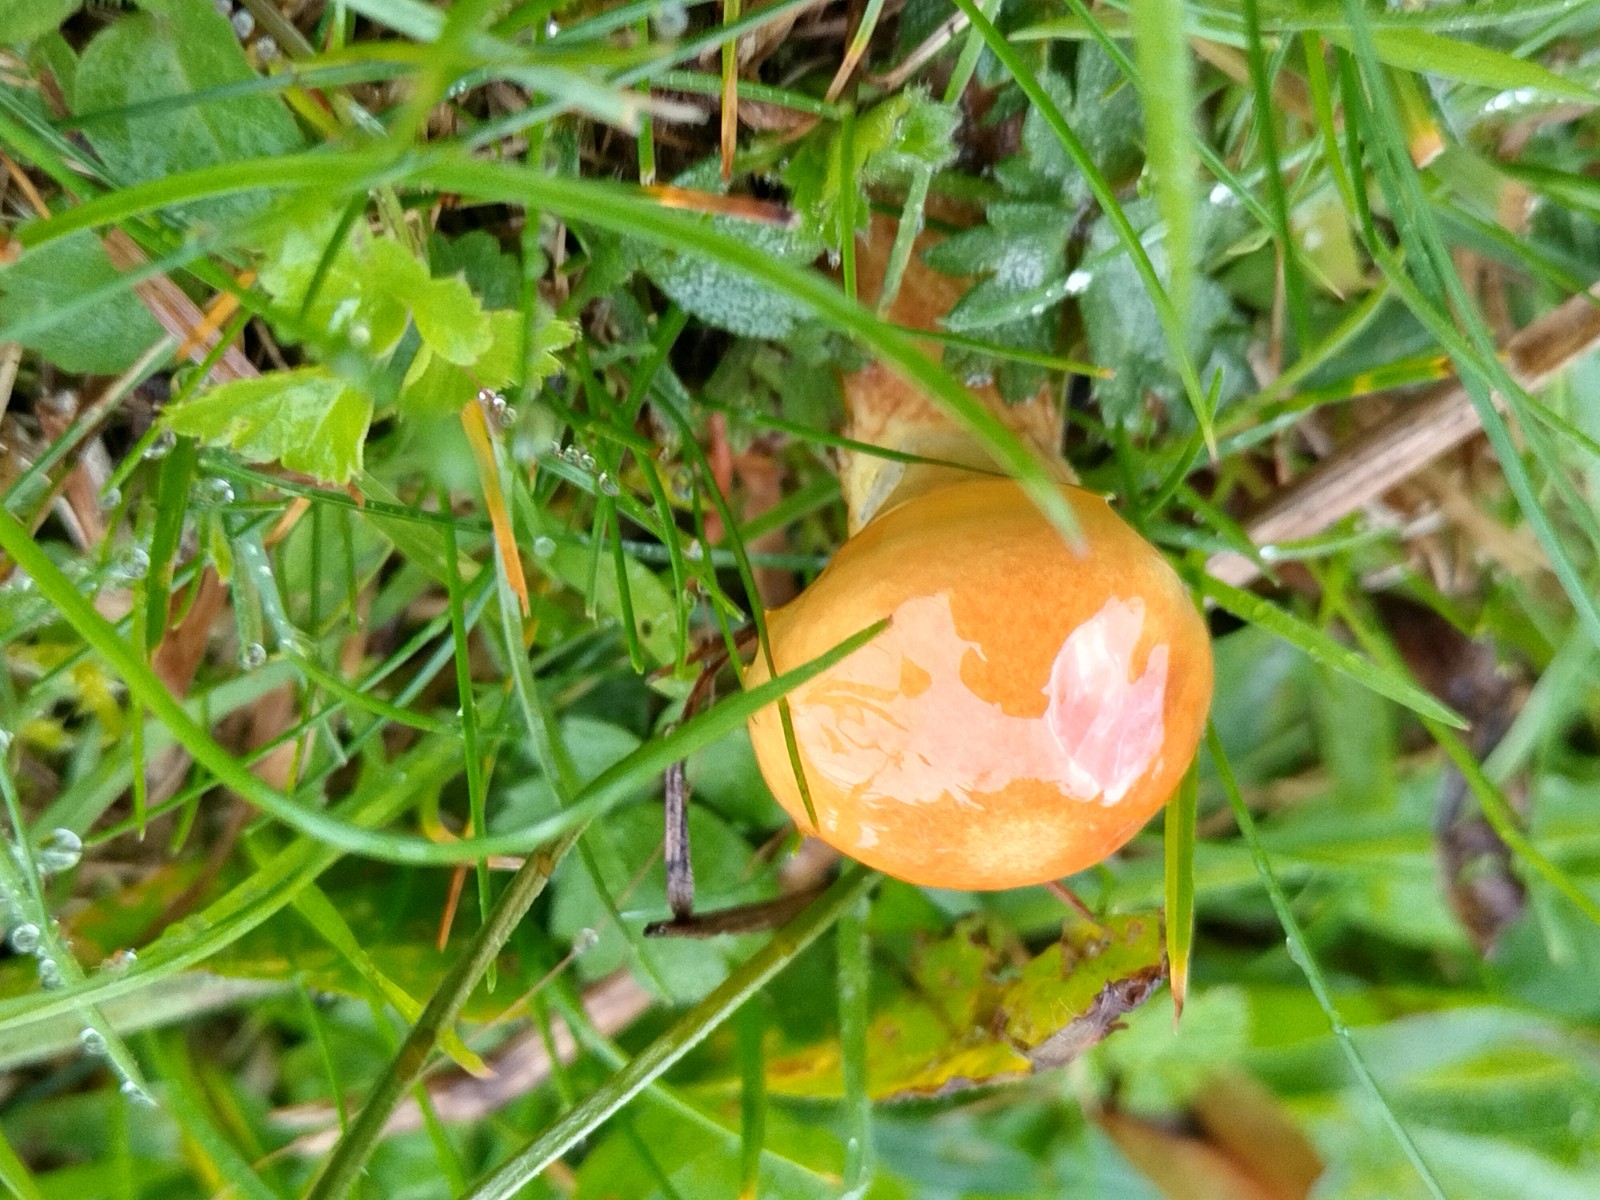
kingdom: Fungi
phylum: Basidiomycota
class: Agaricomycetes
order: Boletales
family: Suillaceae
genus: Suillus
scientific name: Suillus grevillei
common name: lærke-slimrørhat
